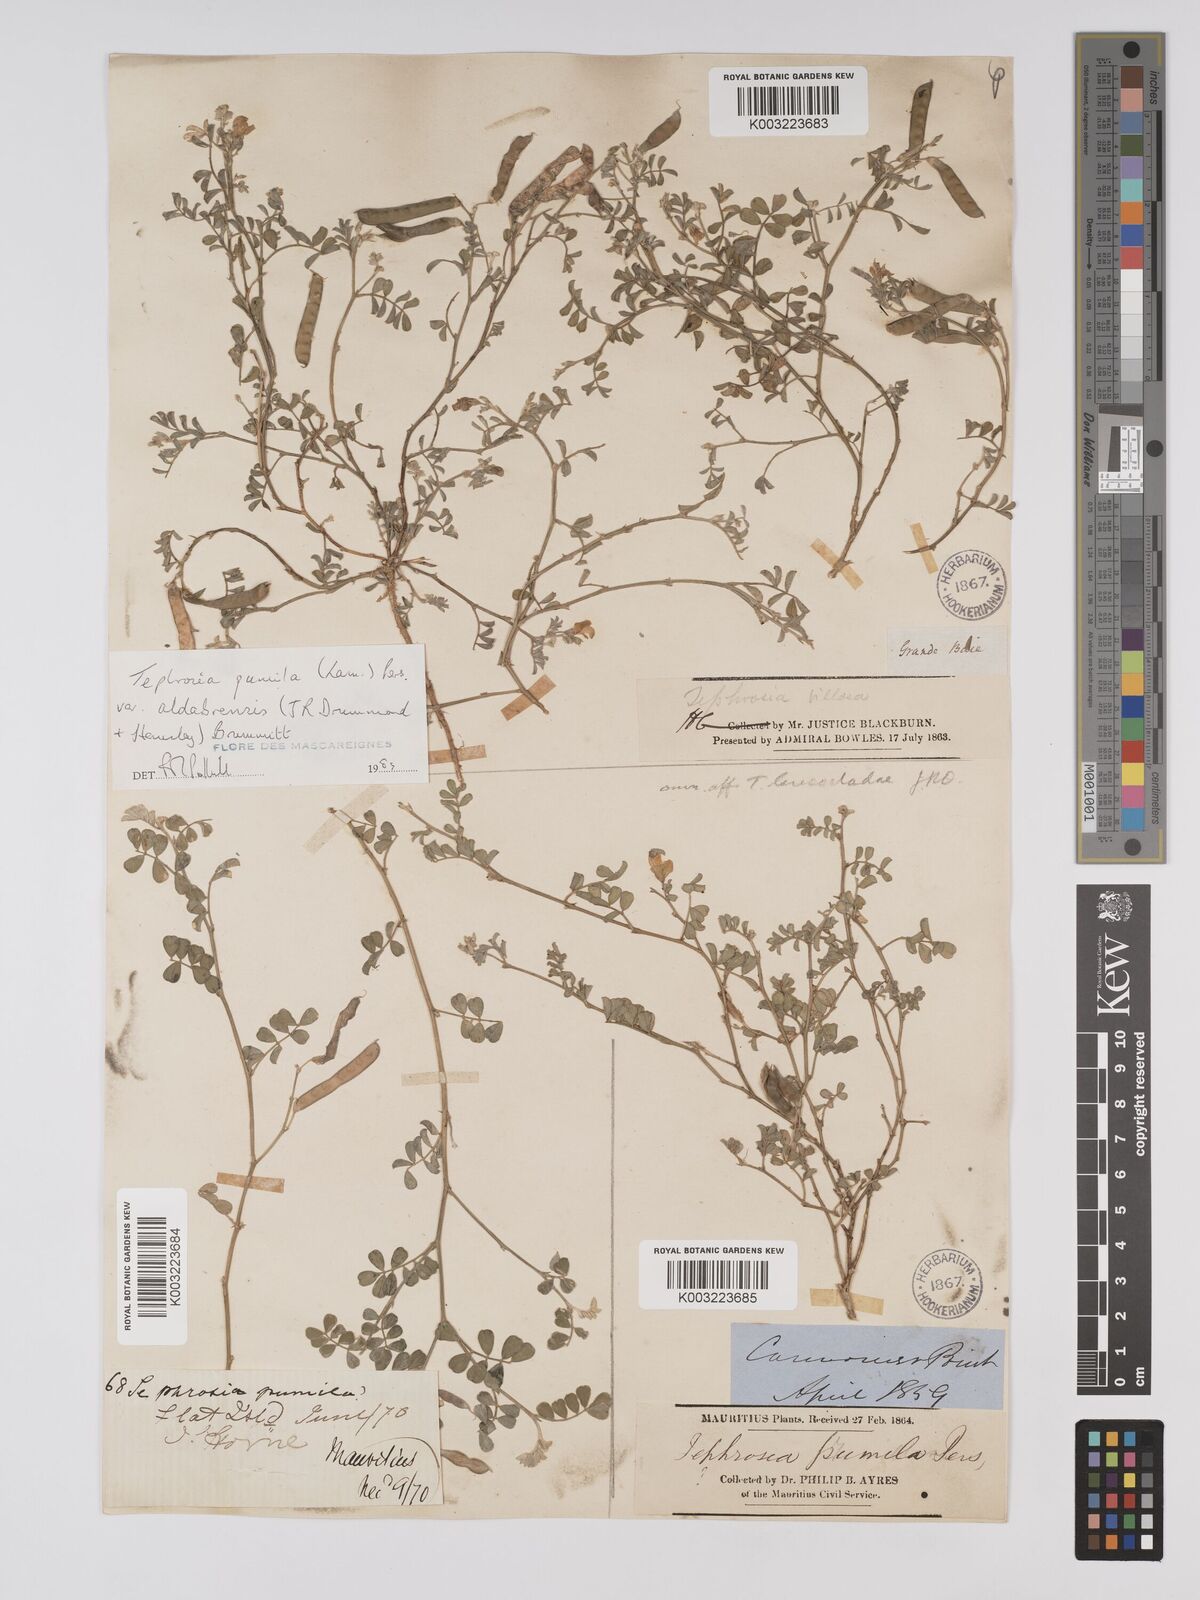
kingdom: Plantae
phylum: Tracheophyta
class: Magnoliopsida
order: Fabales
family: Fabaceae
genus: Tephrosia
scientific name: Tephrosia pumila
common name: Indigo sauvage
